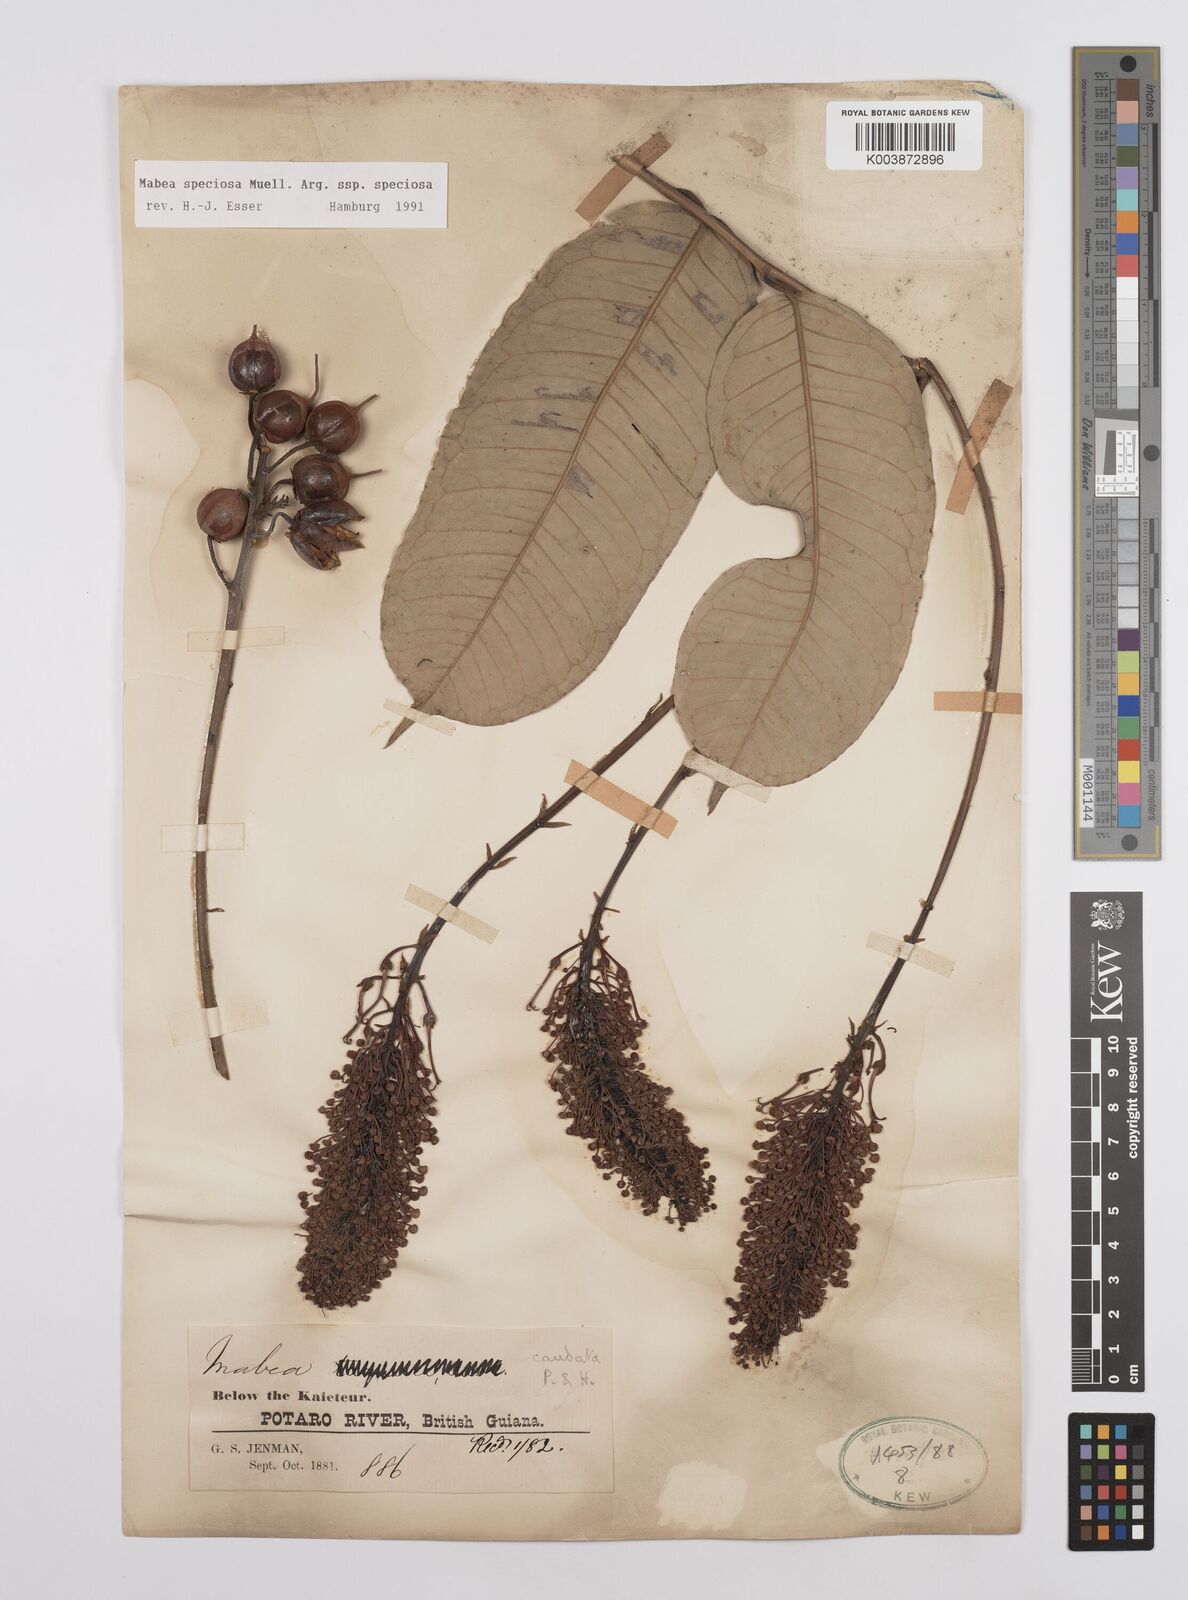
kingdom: Plantae
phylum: Tracheophyta
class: Magnoliopsida
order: Malpighiales
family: Euphorbiaceae
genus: Mabea
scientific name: Mabea speciosa
